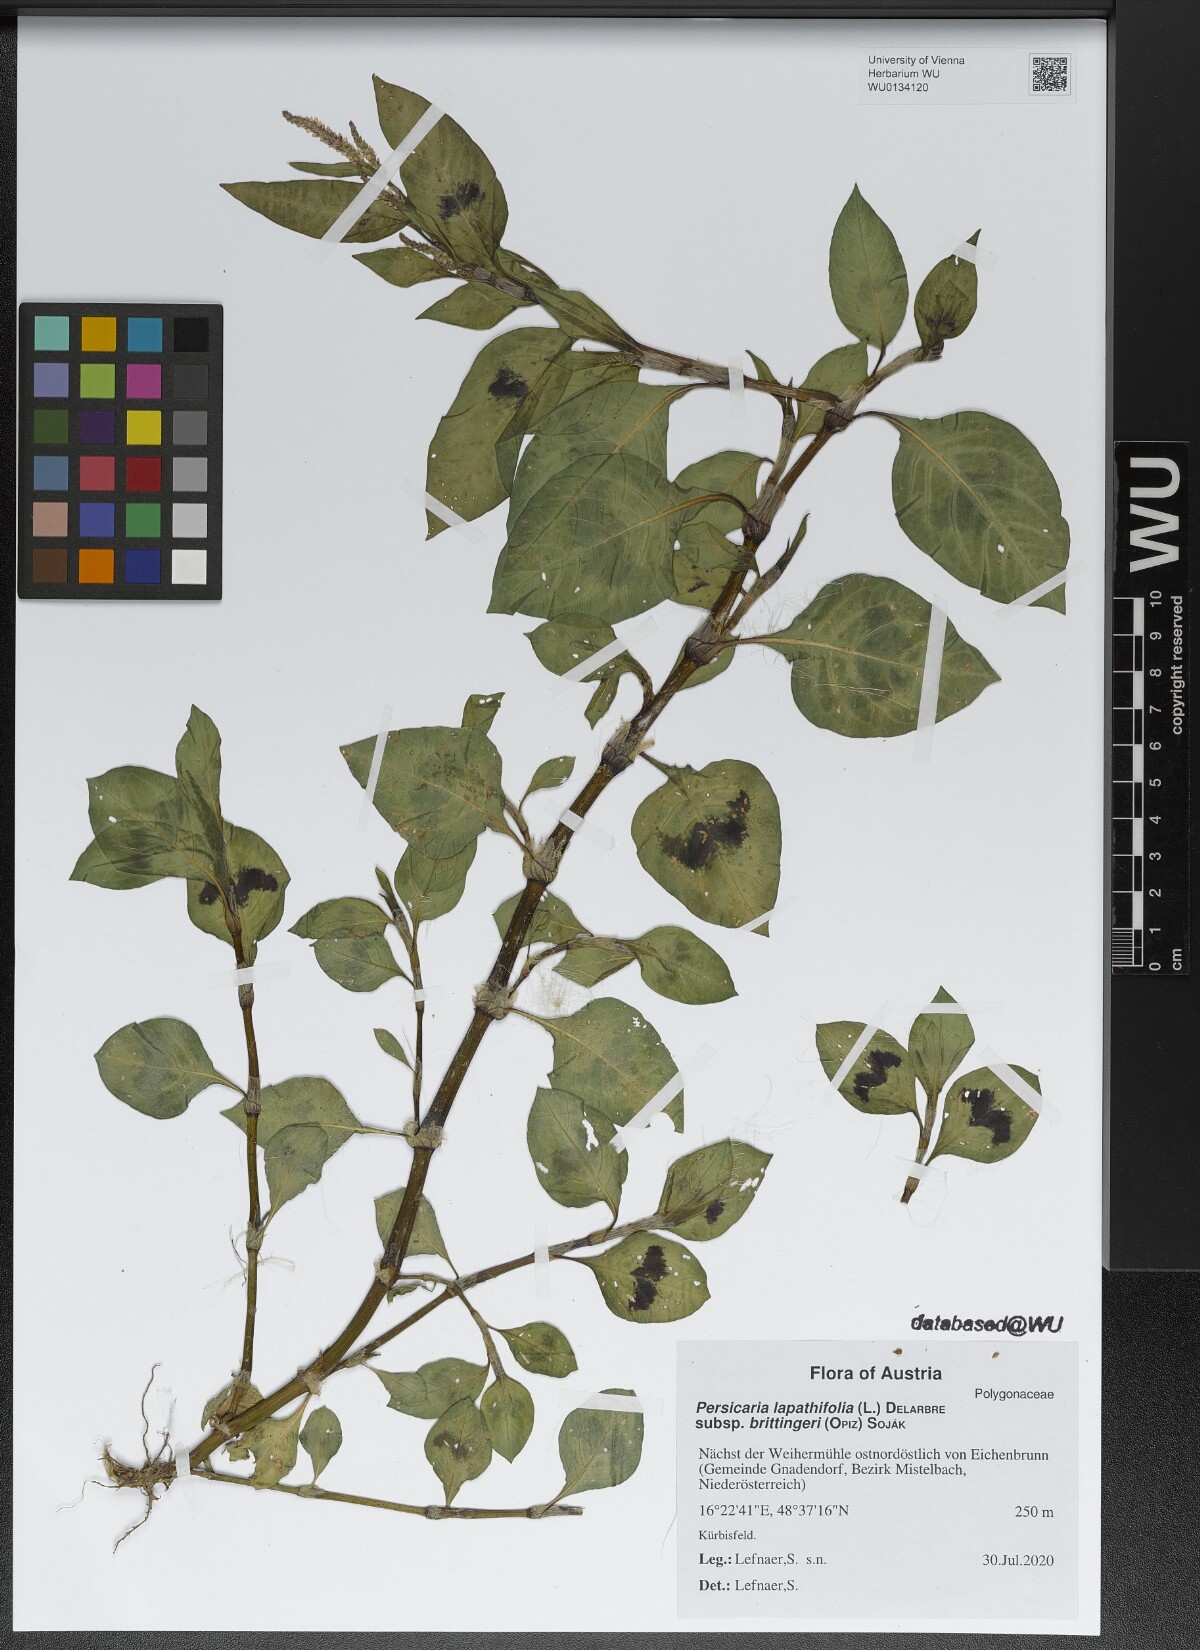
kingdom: Plantae
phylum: Tracheophyta
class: Magnoliopsida
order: Caryophyllales
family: Polygonaceae
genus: Persicaria
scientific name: Persicaria lapathifolia
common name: Curlytop knotweed
